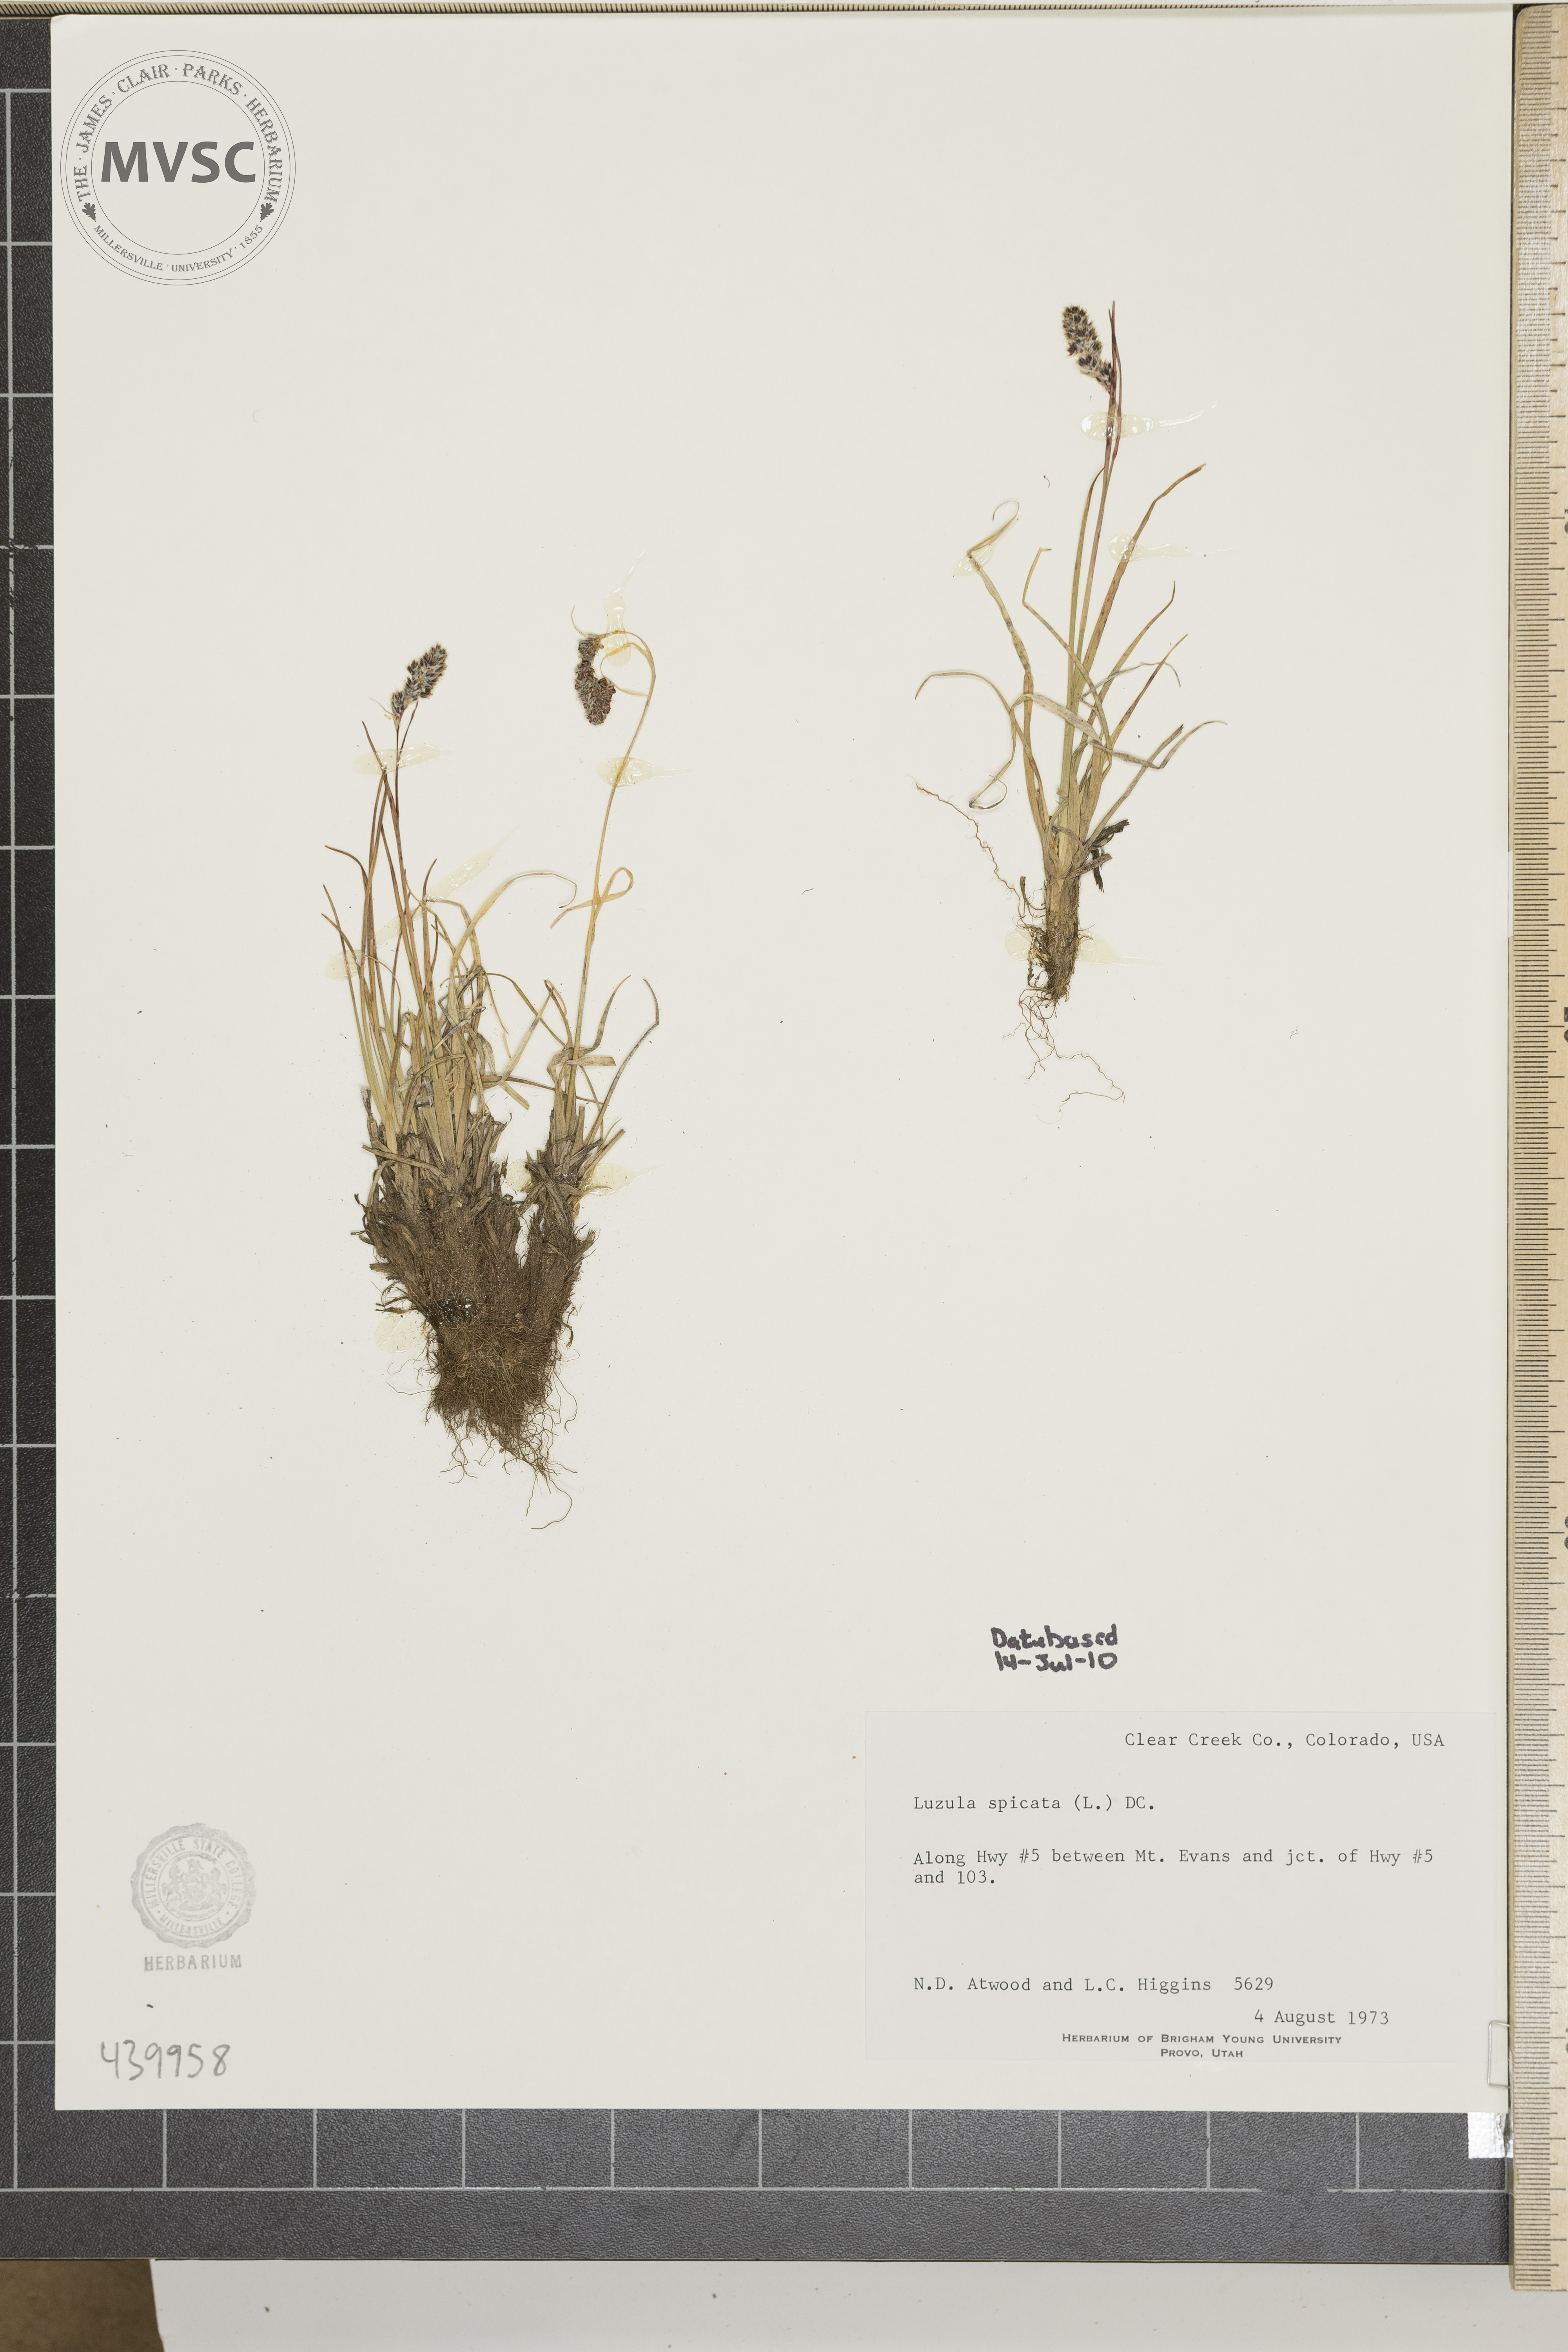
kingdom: Plantae
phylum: Tracheophyta
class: Liliopsida
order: Poales
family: Juncaceae
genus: Luzula
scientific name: Luzula spicata
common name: Spiked wood-rush
